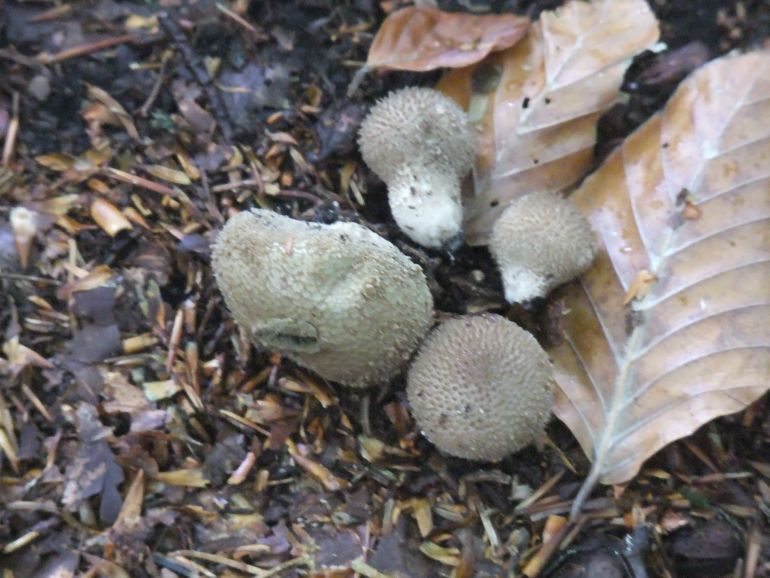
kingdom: Fungi
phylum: Basidiomycota
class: Agaricomycetes
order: Agaricales
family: Lycoperdaceae
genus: Lycoperdon
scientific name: Lycoperdon nigrescens
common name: sortagtig støvbold
